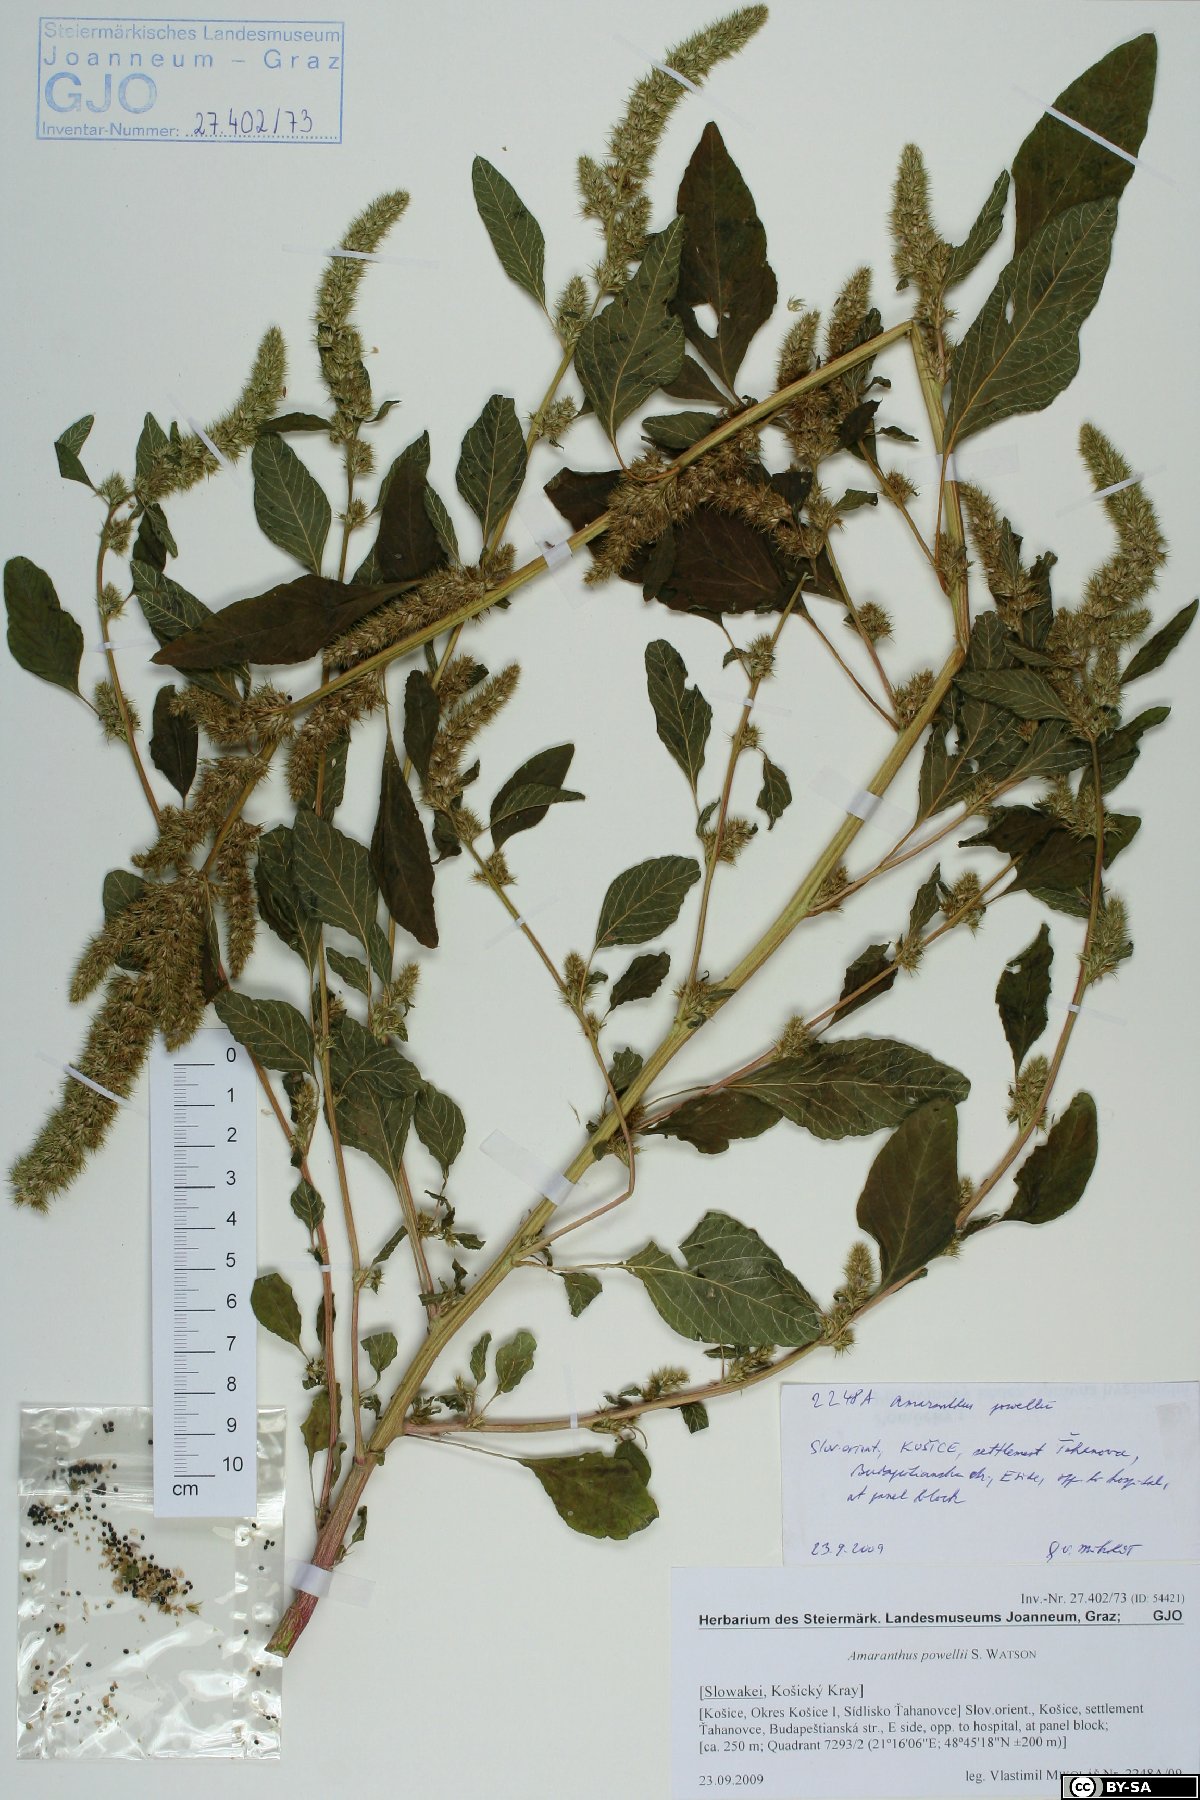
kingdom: Plantae
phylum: Tracheophyta
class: Magnoliopsida
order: Caryophyllales
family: Amaranthaceae
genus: Amaranthus
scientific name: Amaranthus powellii
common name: Powell's amaranth
